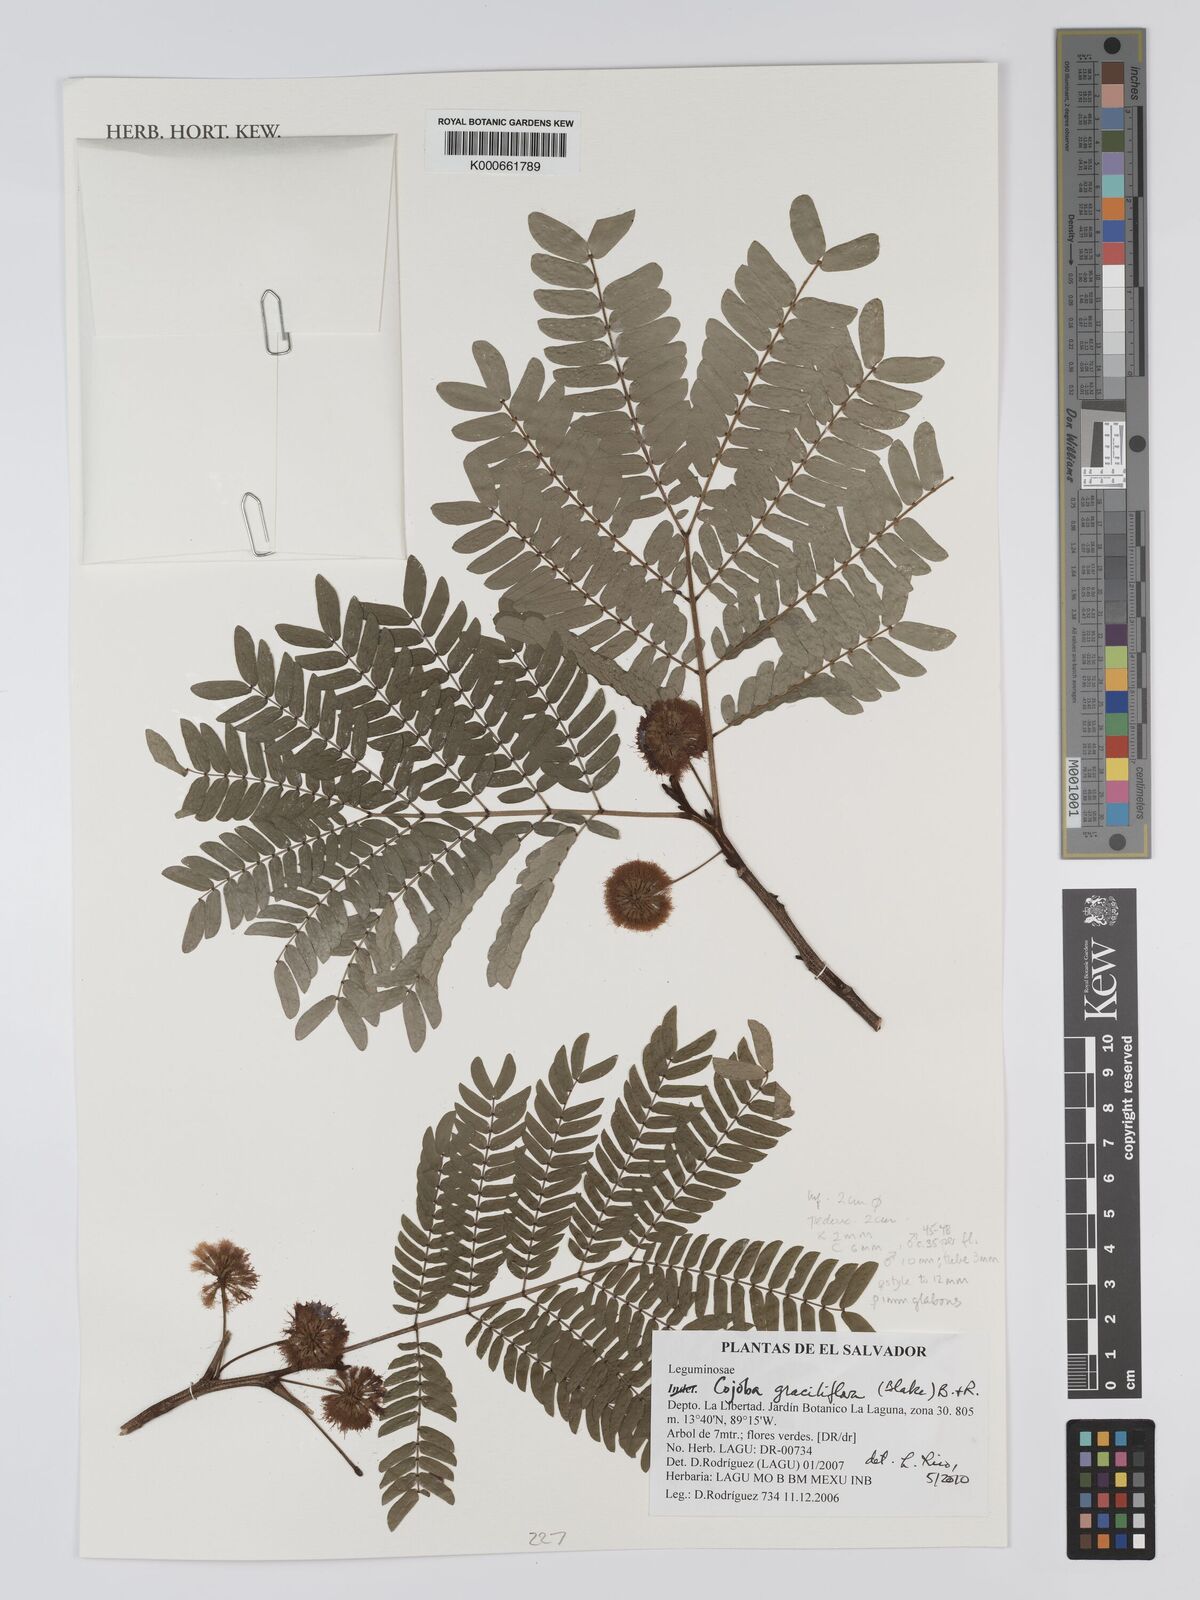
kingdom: Plantae
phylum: Tracheophyta
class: Magnoliopsida
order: Fabales
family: Fabaceae
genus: Cojoba
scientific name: Cojoba graciliflora
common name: Guadeloupe blackbead
